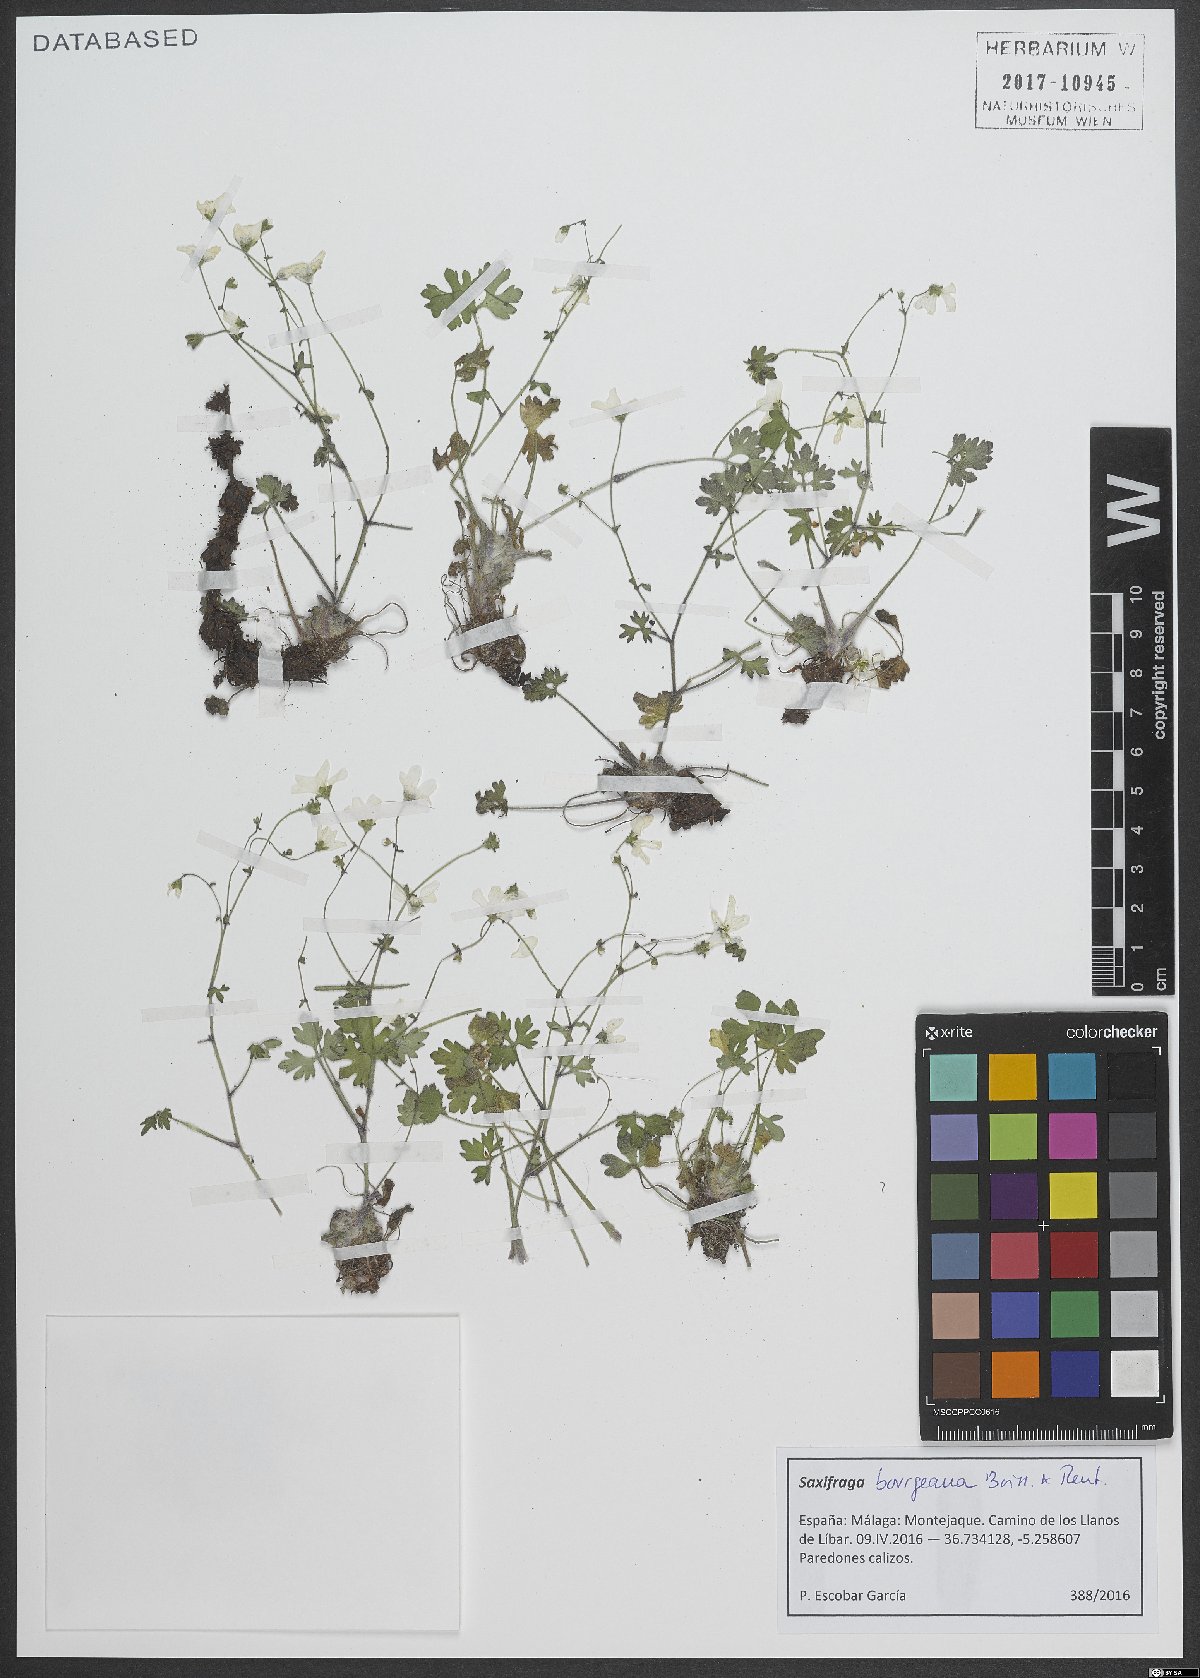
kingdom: Plantae
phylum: Tracheophyta
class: Magnoliopsida
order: Saxifragales
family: Saxifragaceae
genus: Saxifraga
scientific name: Saxifraga bourgaeana
